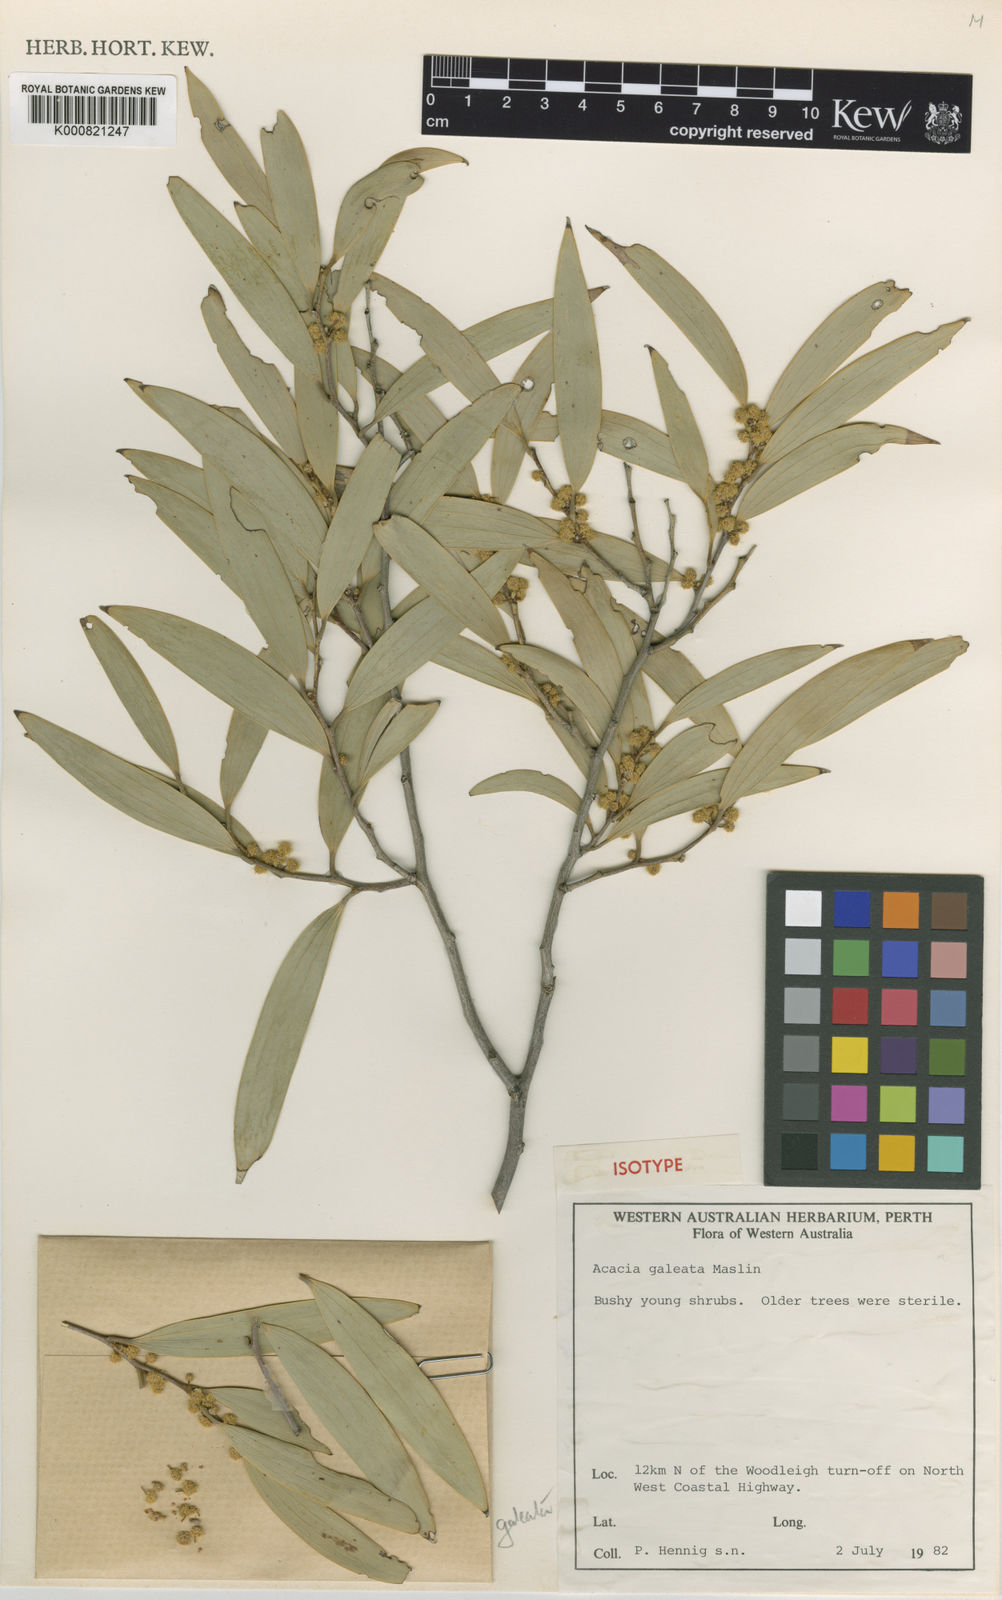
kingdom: Plantae
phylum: Tracheophyta
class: Magnoliopsida
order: Fabales
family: Fabaceae
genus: Acacia
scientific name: Acacia galeata
